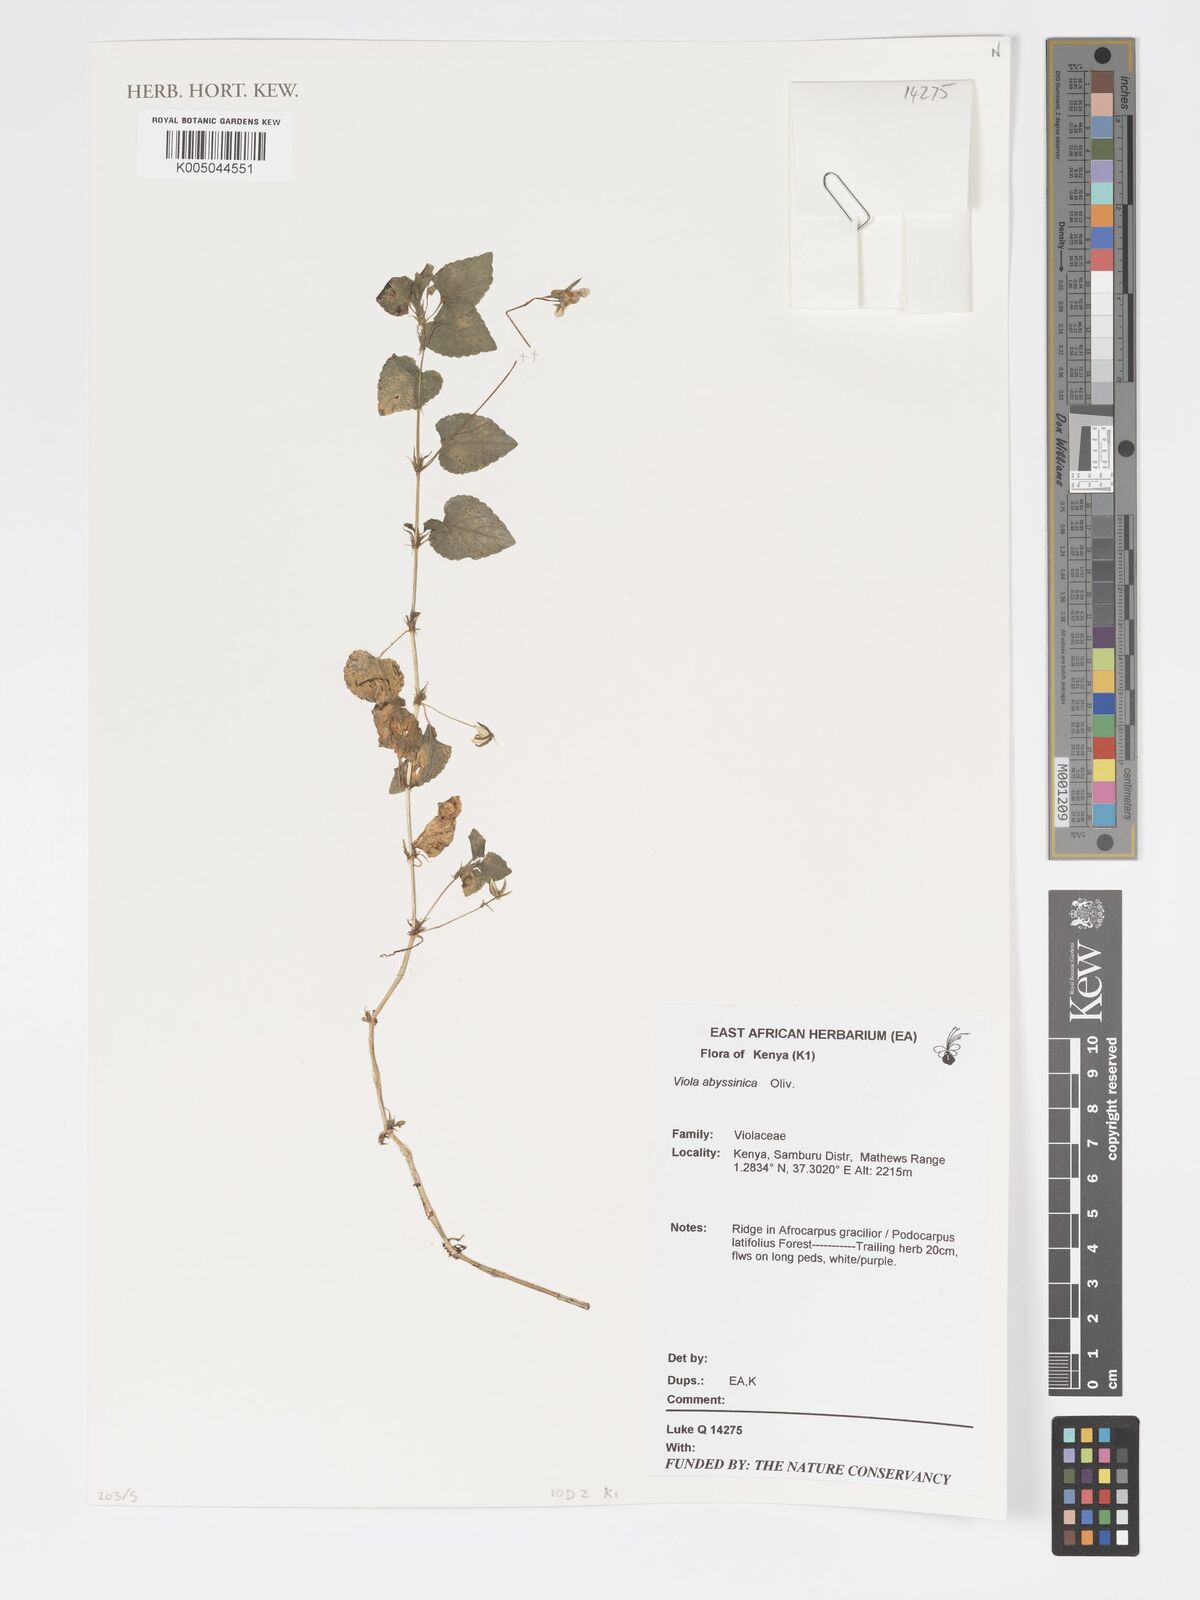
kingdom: Plantae
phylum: Tracheophyta
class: Magnoliopsida
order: Malpighiales
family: Violaceae
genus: Viola
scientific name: Viola abyssinica
